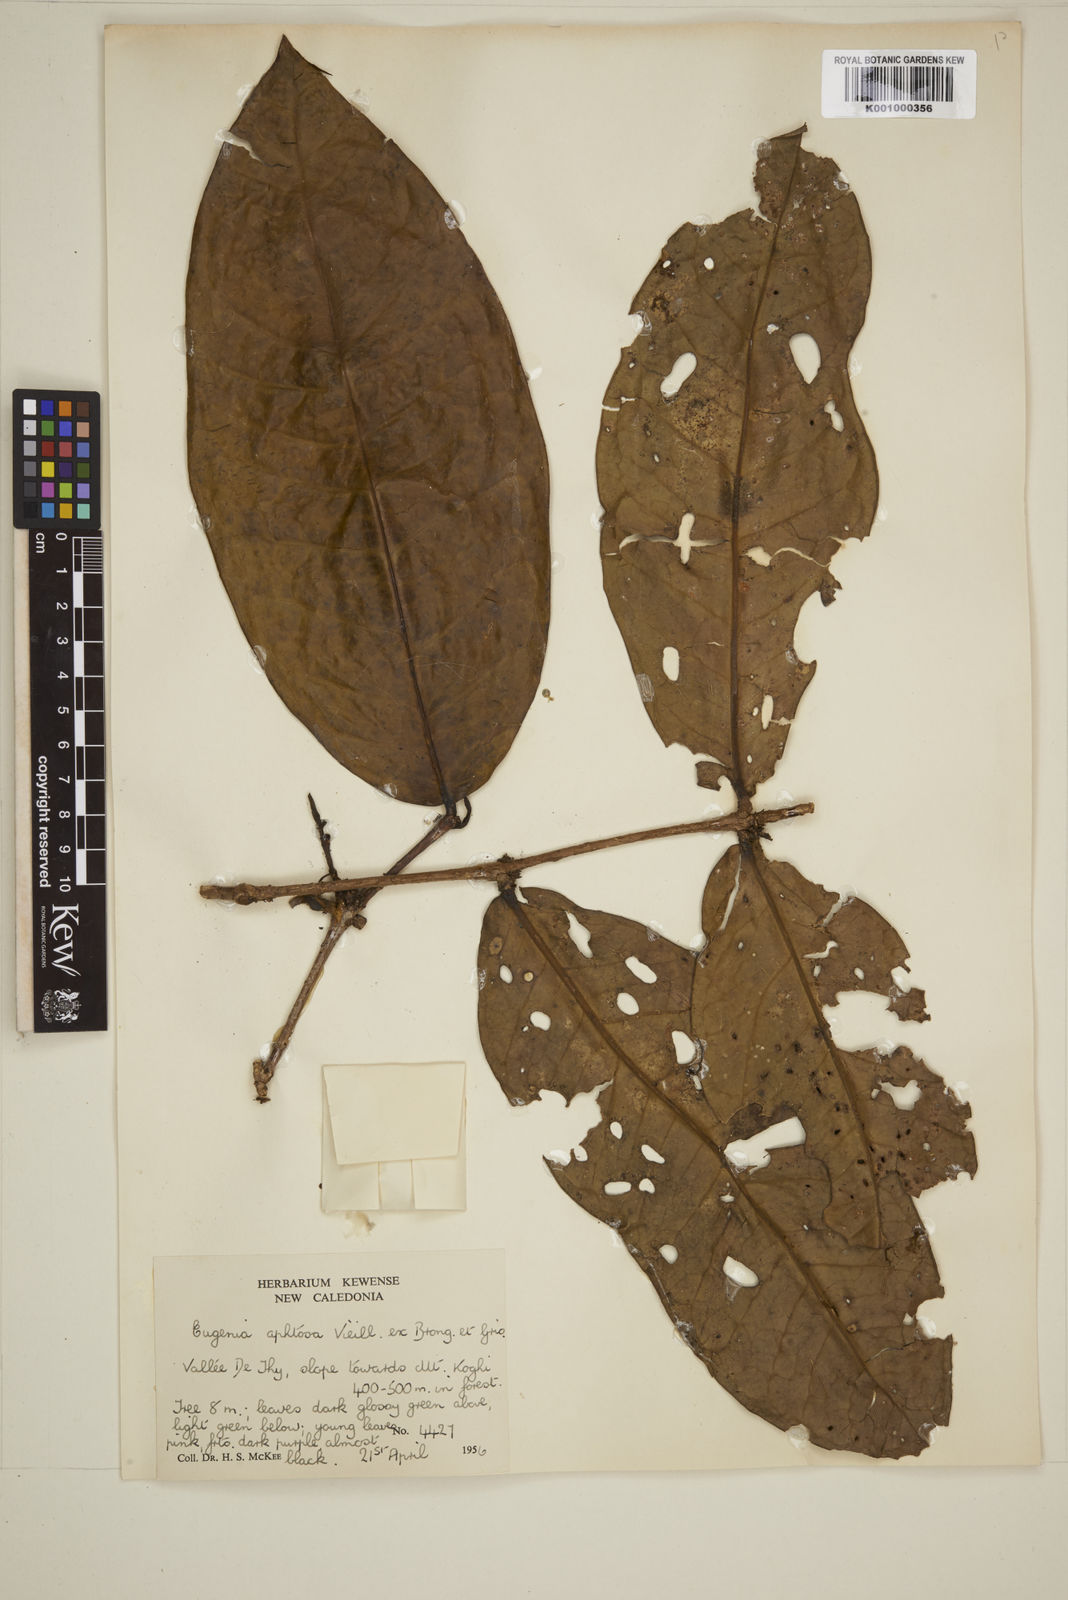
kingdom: Plantae
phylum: Tracheophyta
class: Magnoliopsida
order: Myrtales
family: Myrtaceae
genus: Gossia
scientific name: Gossia aphthosa
